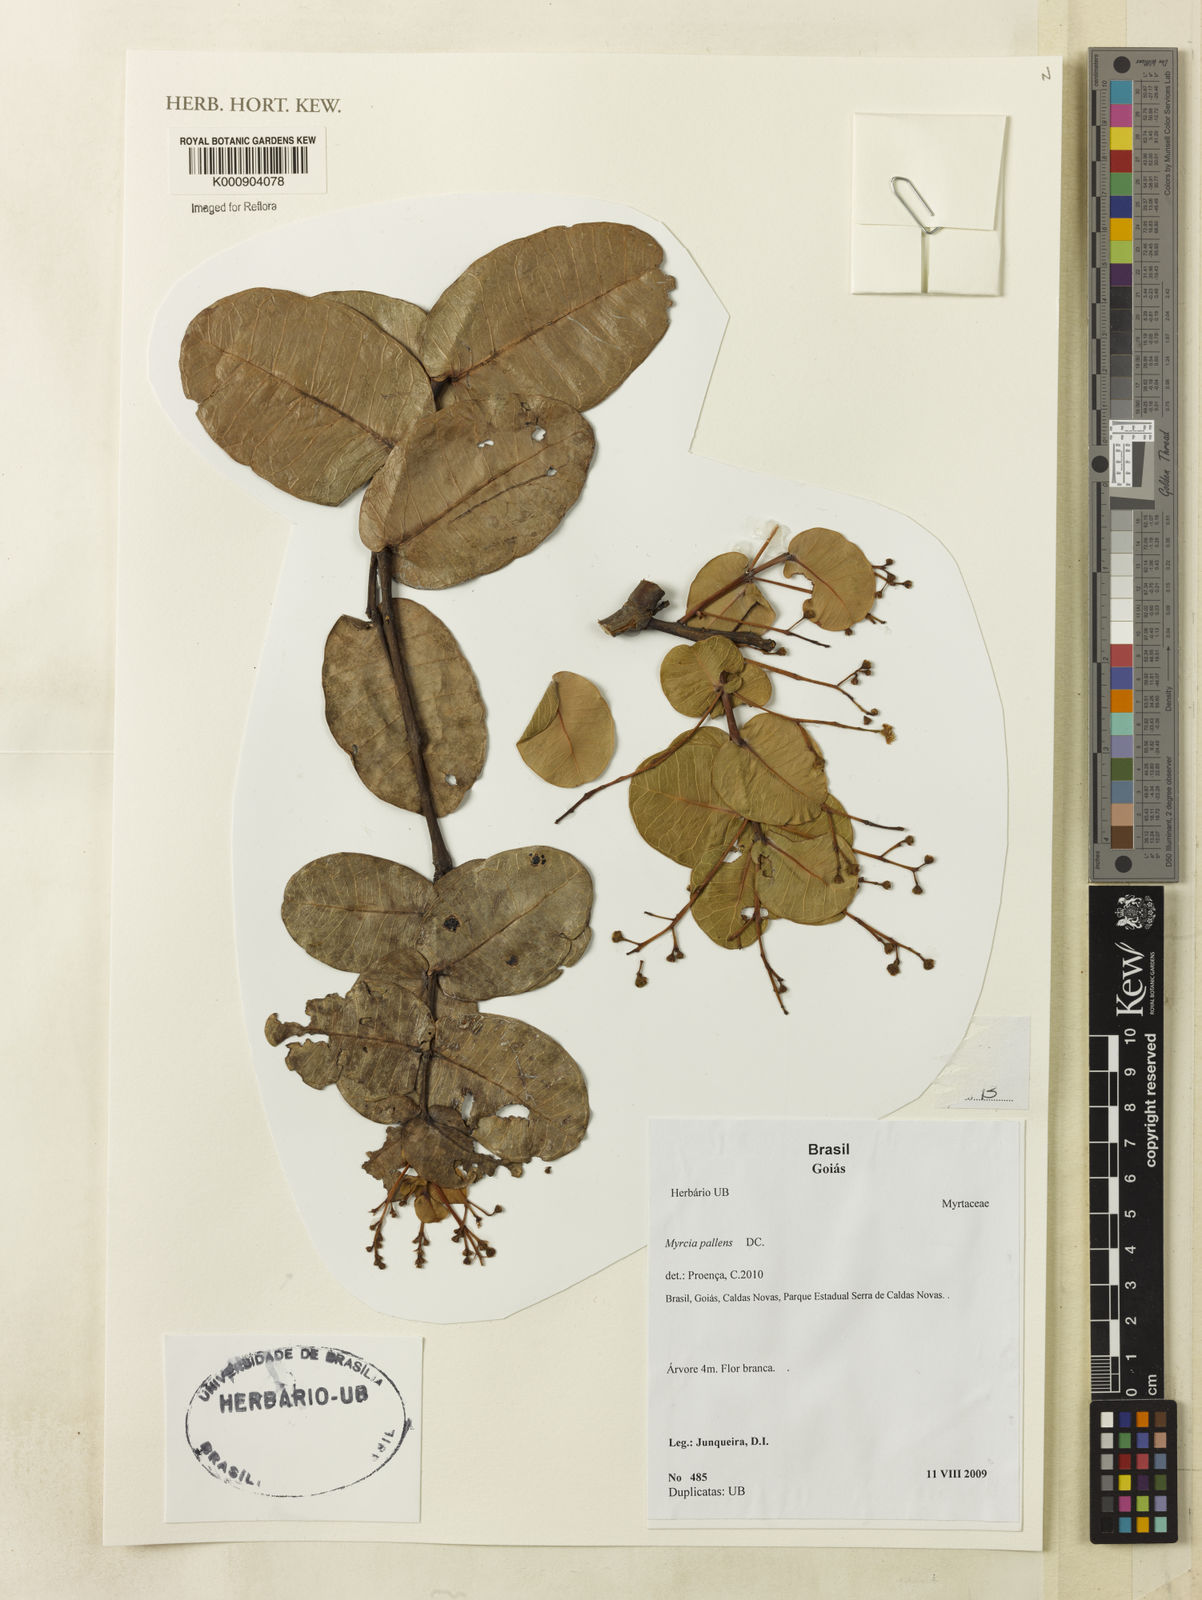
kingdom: Plantae
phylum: Tracheophyta
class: Magnoliopsida
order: Myrtales
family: Myrtaceae
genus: Myrcia
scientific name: Myrcia variabilis
